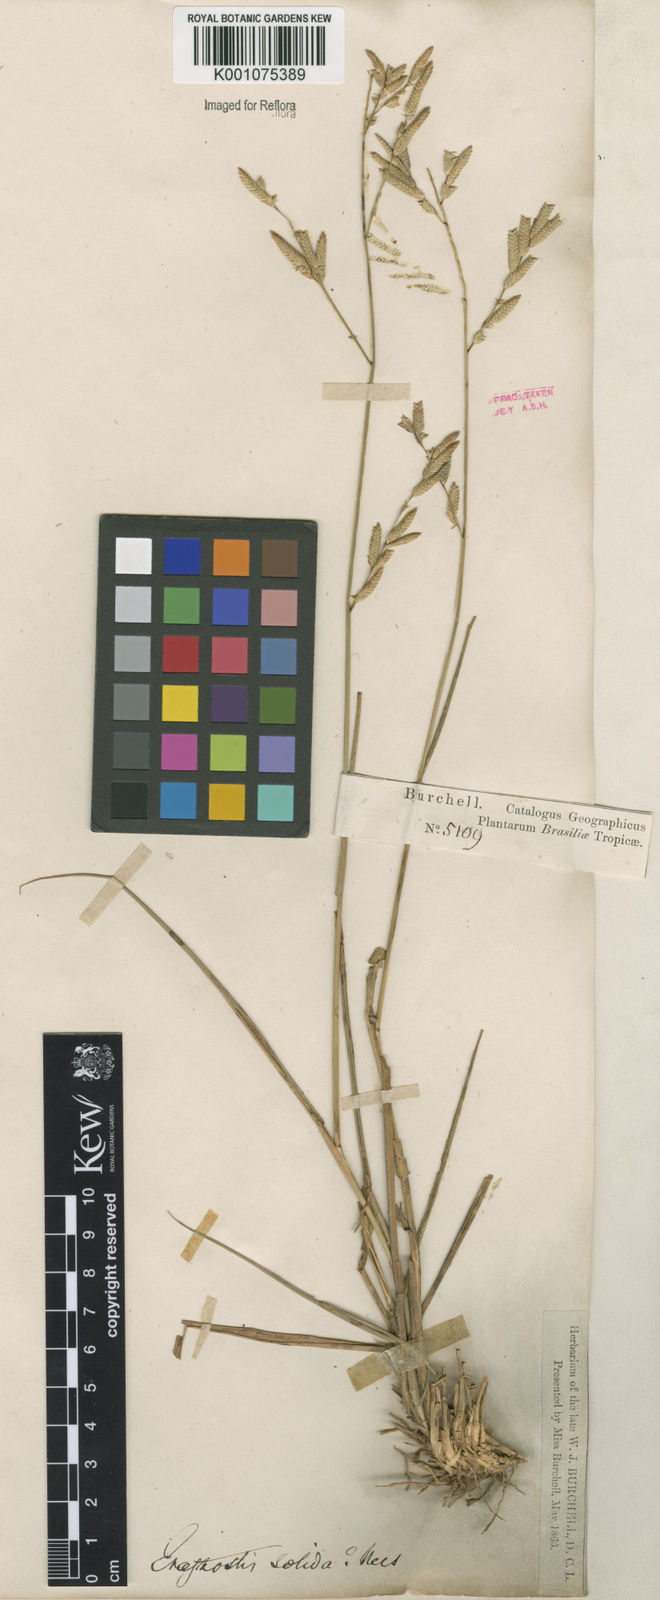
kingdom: Plantae
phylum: Tracheophyta
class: Liliopsida
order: Poales
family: Poaceae
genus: Eragrostis
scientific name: Eragrostis solida
